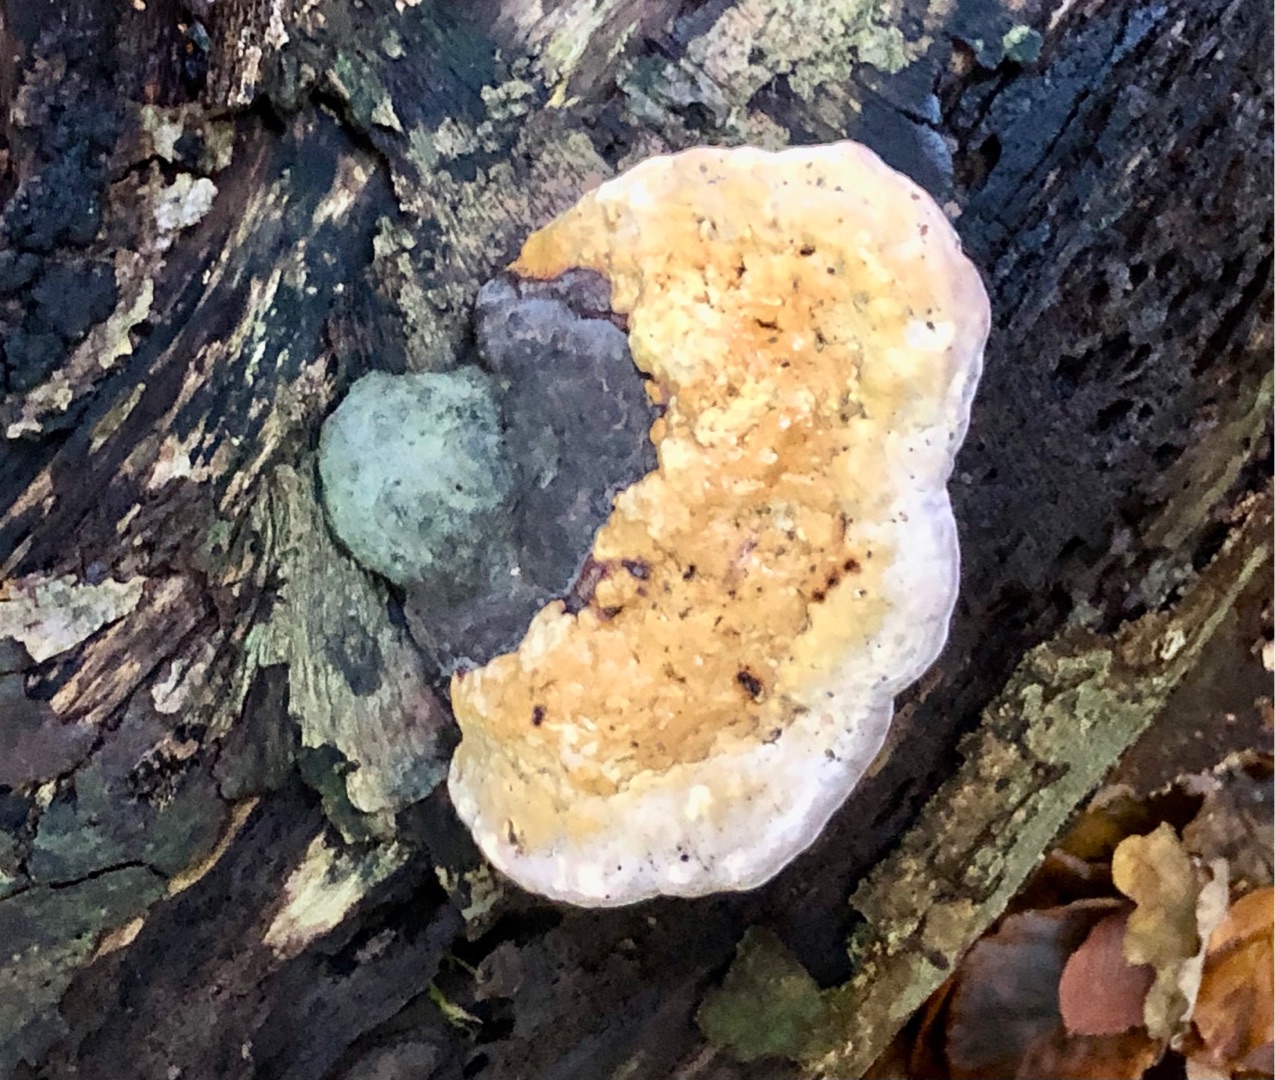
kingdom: Fungi
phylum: Basidiomycota
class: Agaricomycetes
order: Polyporales
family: Fomitopsidaceae
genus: Fomitopsis
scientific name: Fomitopsis pinicola
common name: Randbæltet hovporesvamp
